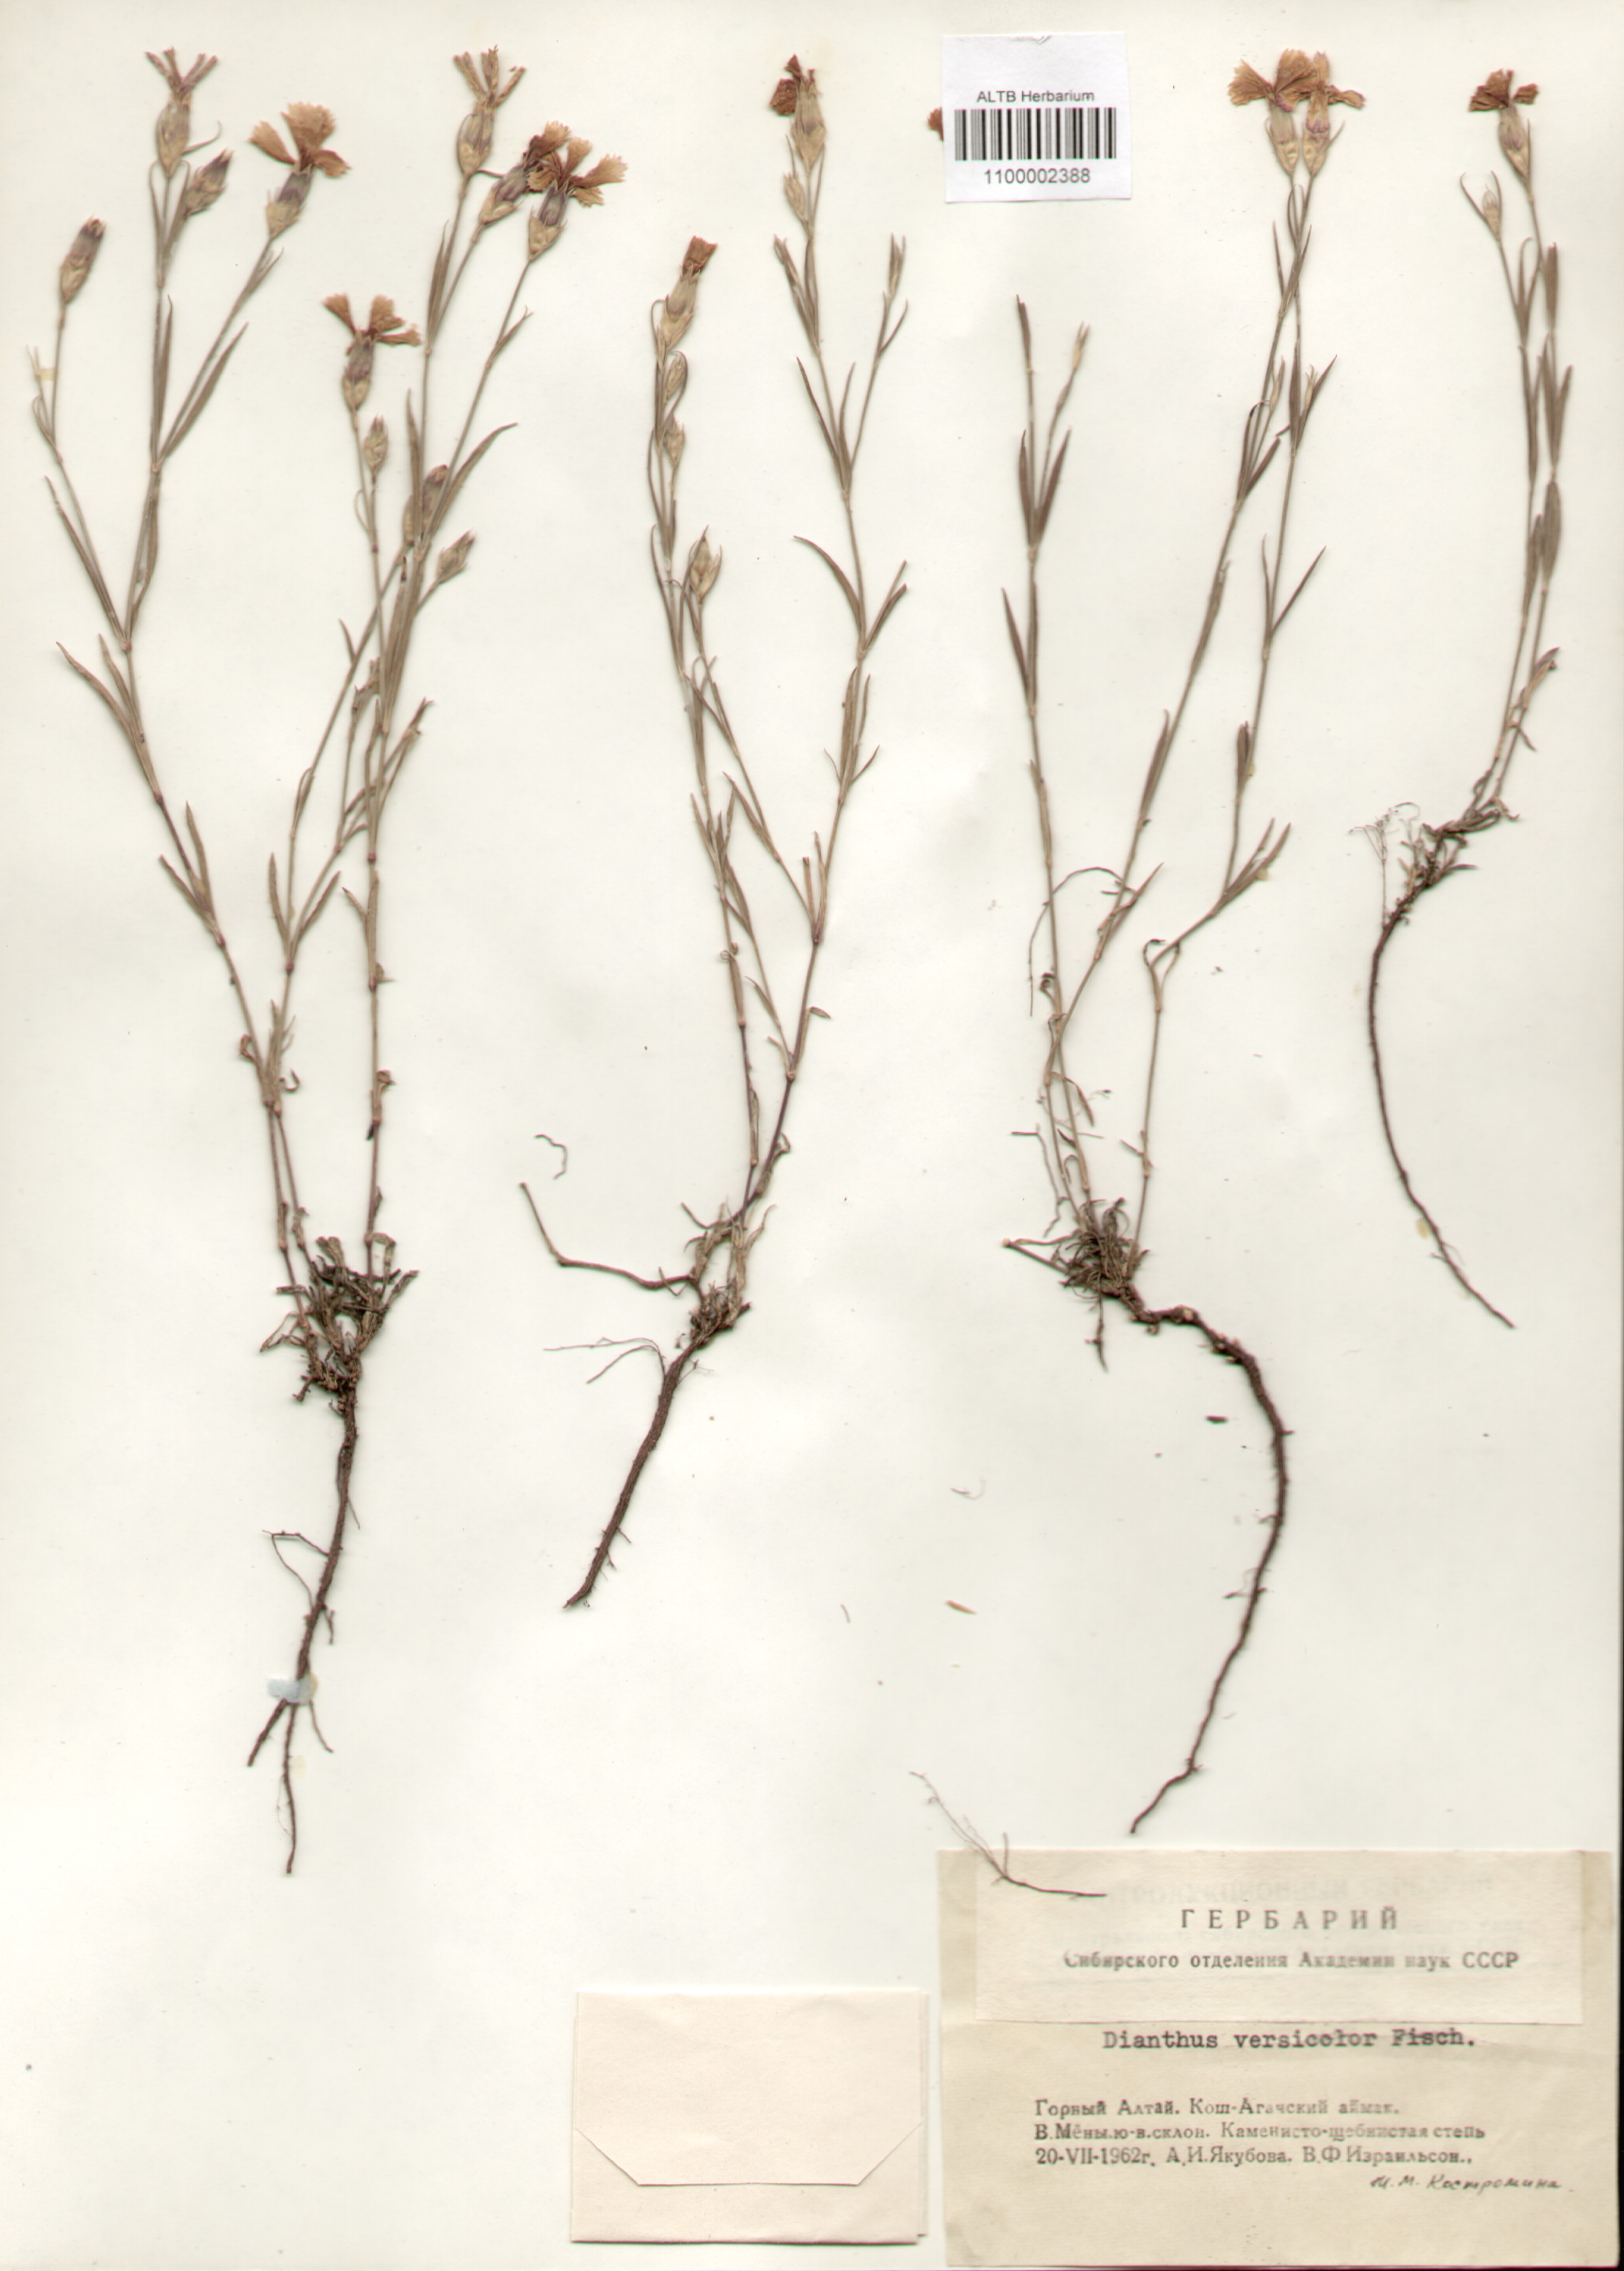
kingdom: Plantae
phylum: Tracheophyta
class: Magnoliopsida
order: Caryophyllales
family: Caryophyllaceae
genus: Dianthus
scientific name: Dianthus chinensis
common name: Rainbow pink
